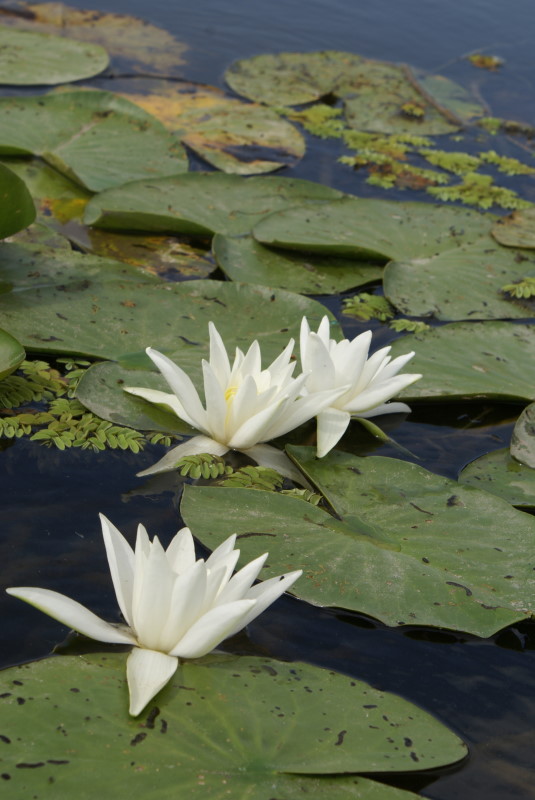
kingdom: Plantae
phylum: Tracheophyta
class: Magnoliopsida
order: Nymphaeales
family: Nymphaeaceae
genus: Nymphaea
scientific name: Nymphaea alba
